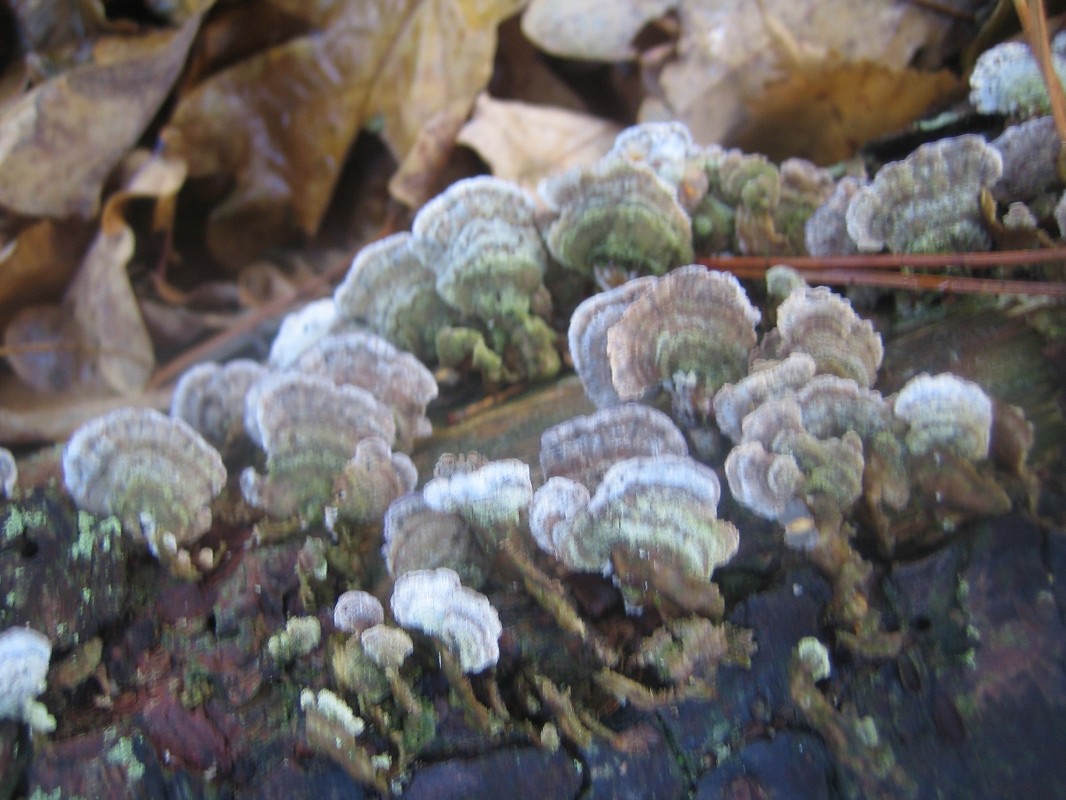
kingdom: Fungi
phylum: Basidiomycota
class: Agaricomycetes
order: Hymenochaetales
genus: Trichaptum
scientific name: Trichaptum abietinum
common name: almindelig violporesvamp
